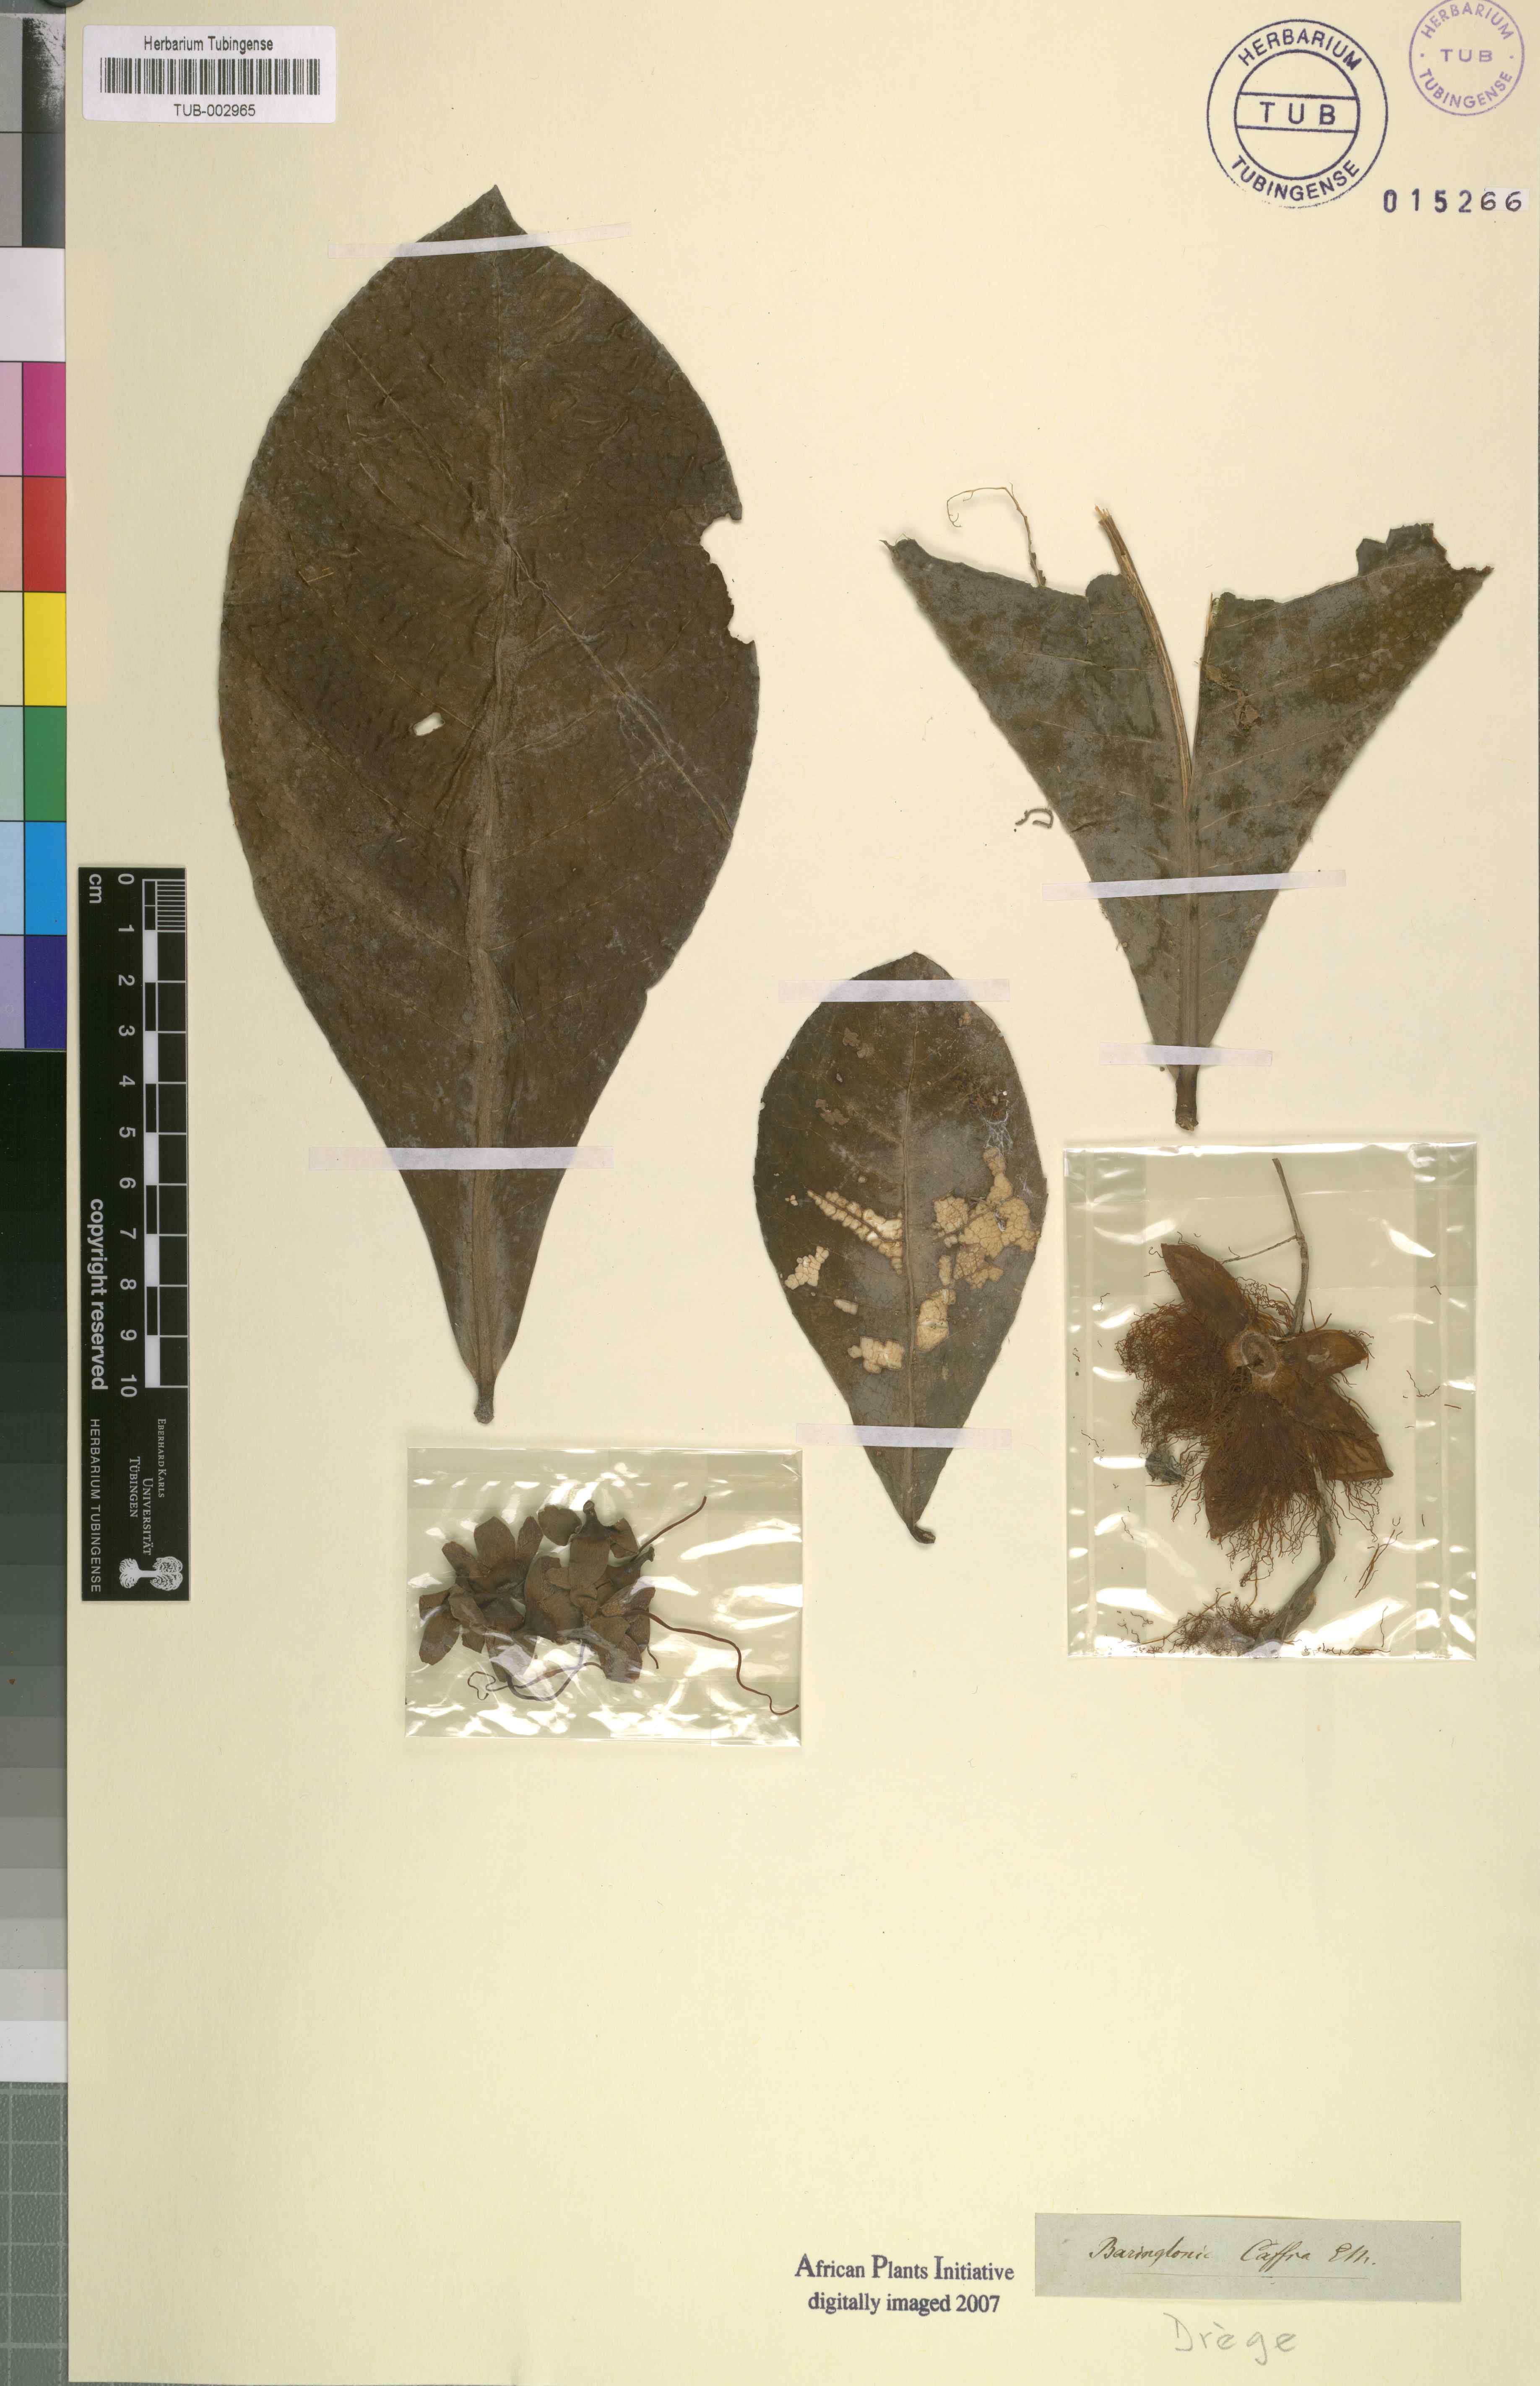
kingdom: Plantae
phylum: Tracheophyta
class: Magnoliopsida
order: Ericales
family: Lecythidaceae
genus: Barringtonia
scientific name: Barringtonia racemosa
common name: Brackwater mangrove
